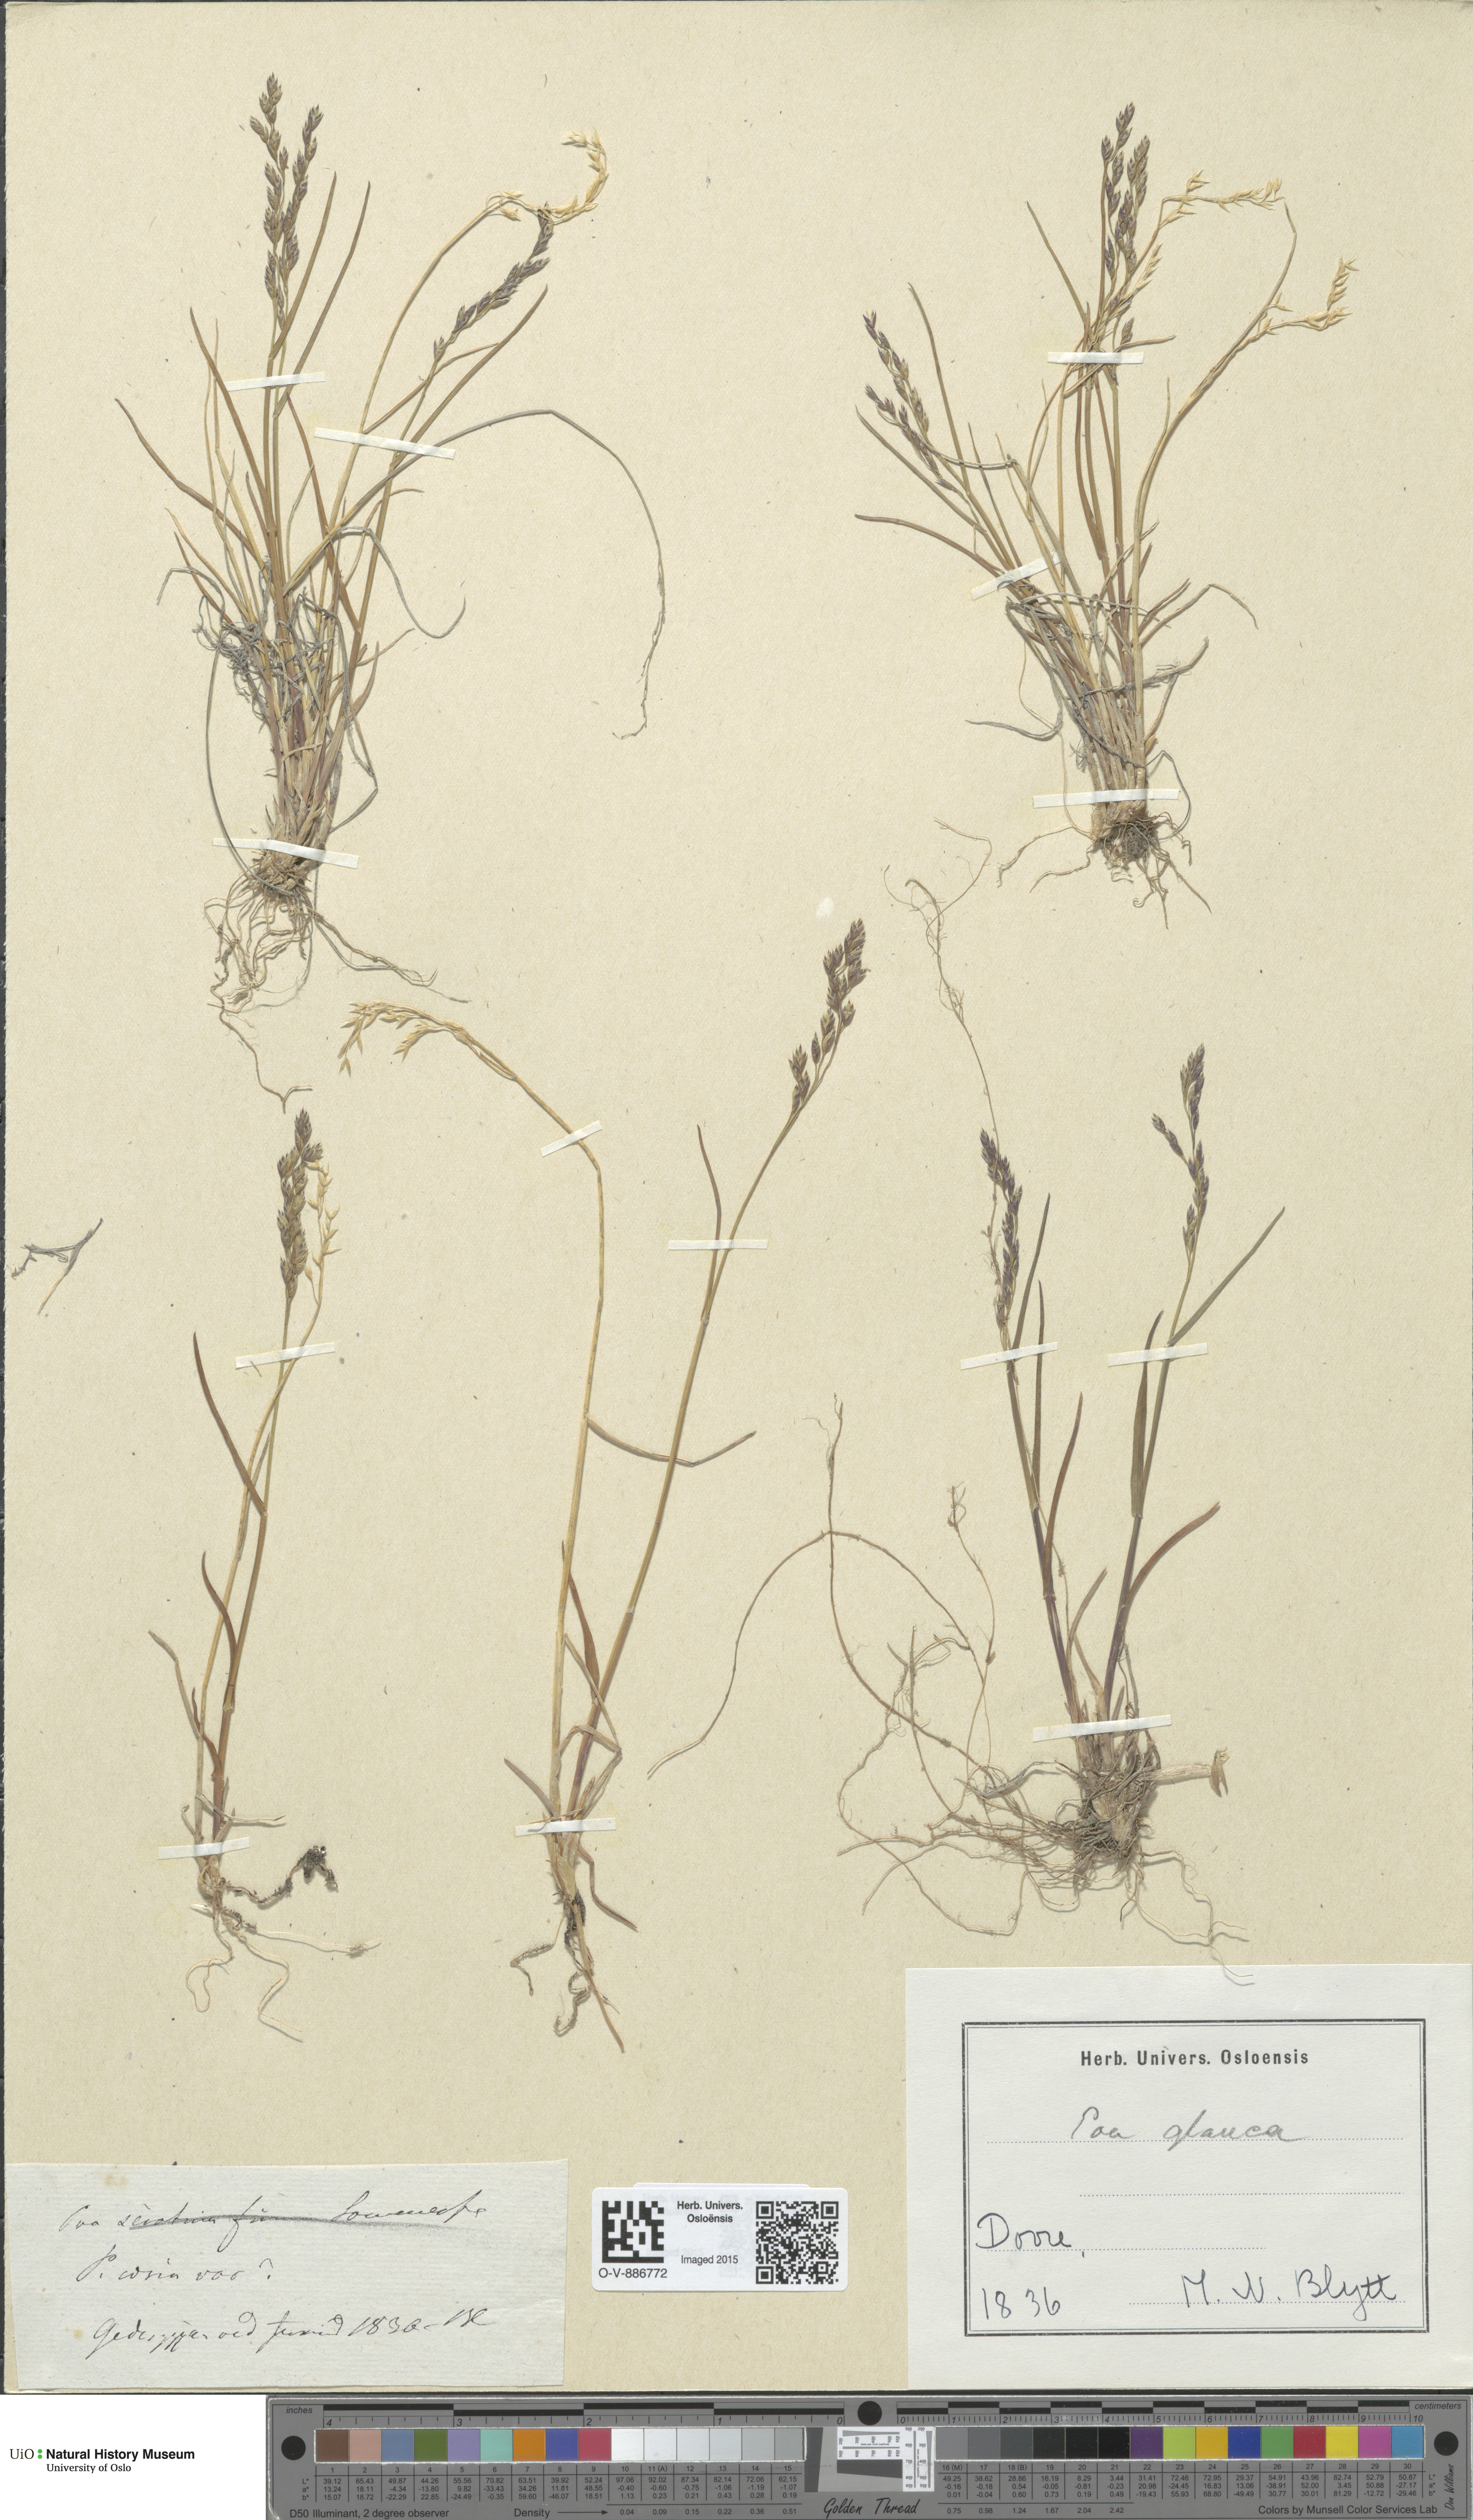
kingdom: Plantae
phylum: Tracheophyta
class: Liliopsida
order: Poales
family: Poaceae
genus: Poa
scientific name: Poa glauca
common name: Glaucous bluegrass
